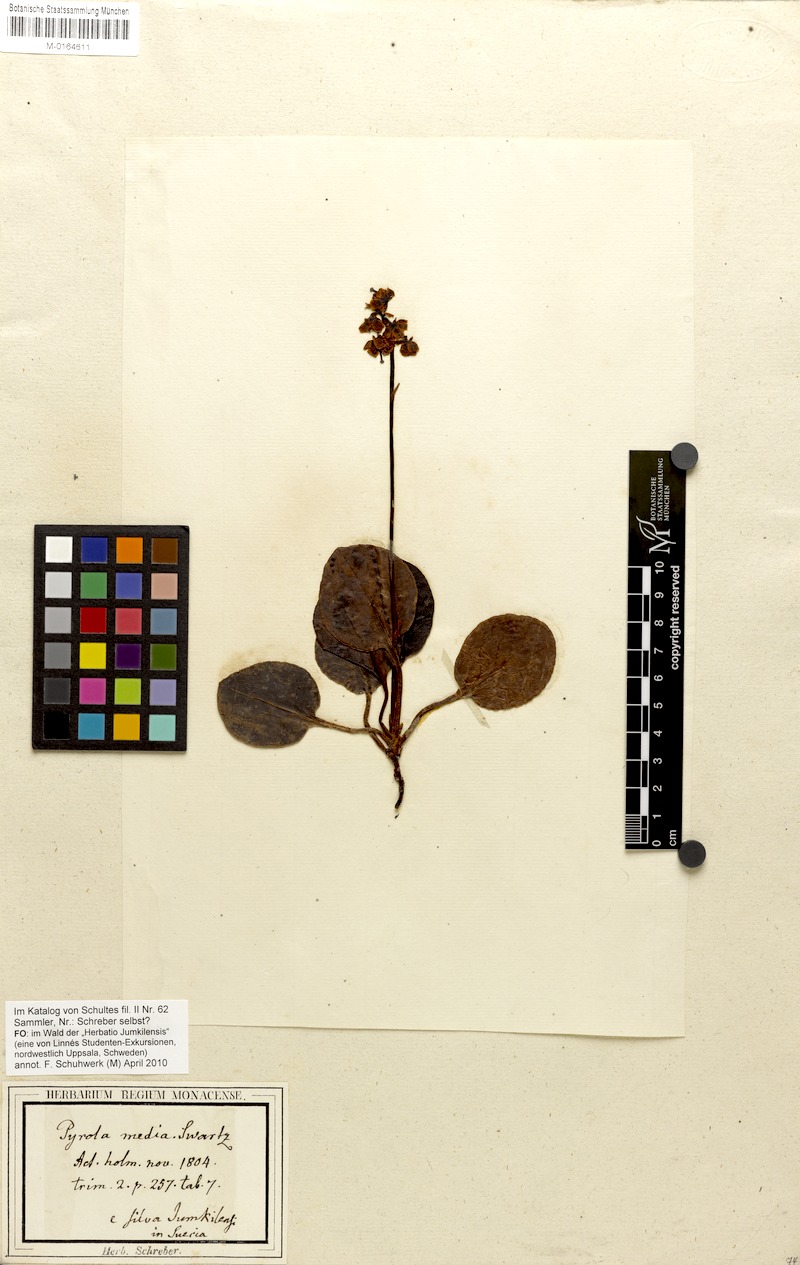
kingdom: Plantae
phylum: Tracheophyta
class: Magnoliopsida
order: Ericales
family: Ericaceae
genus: Pyrola
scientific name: Pyrola media
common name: Intermediate wintergreen
